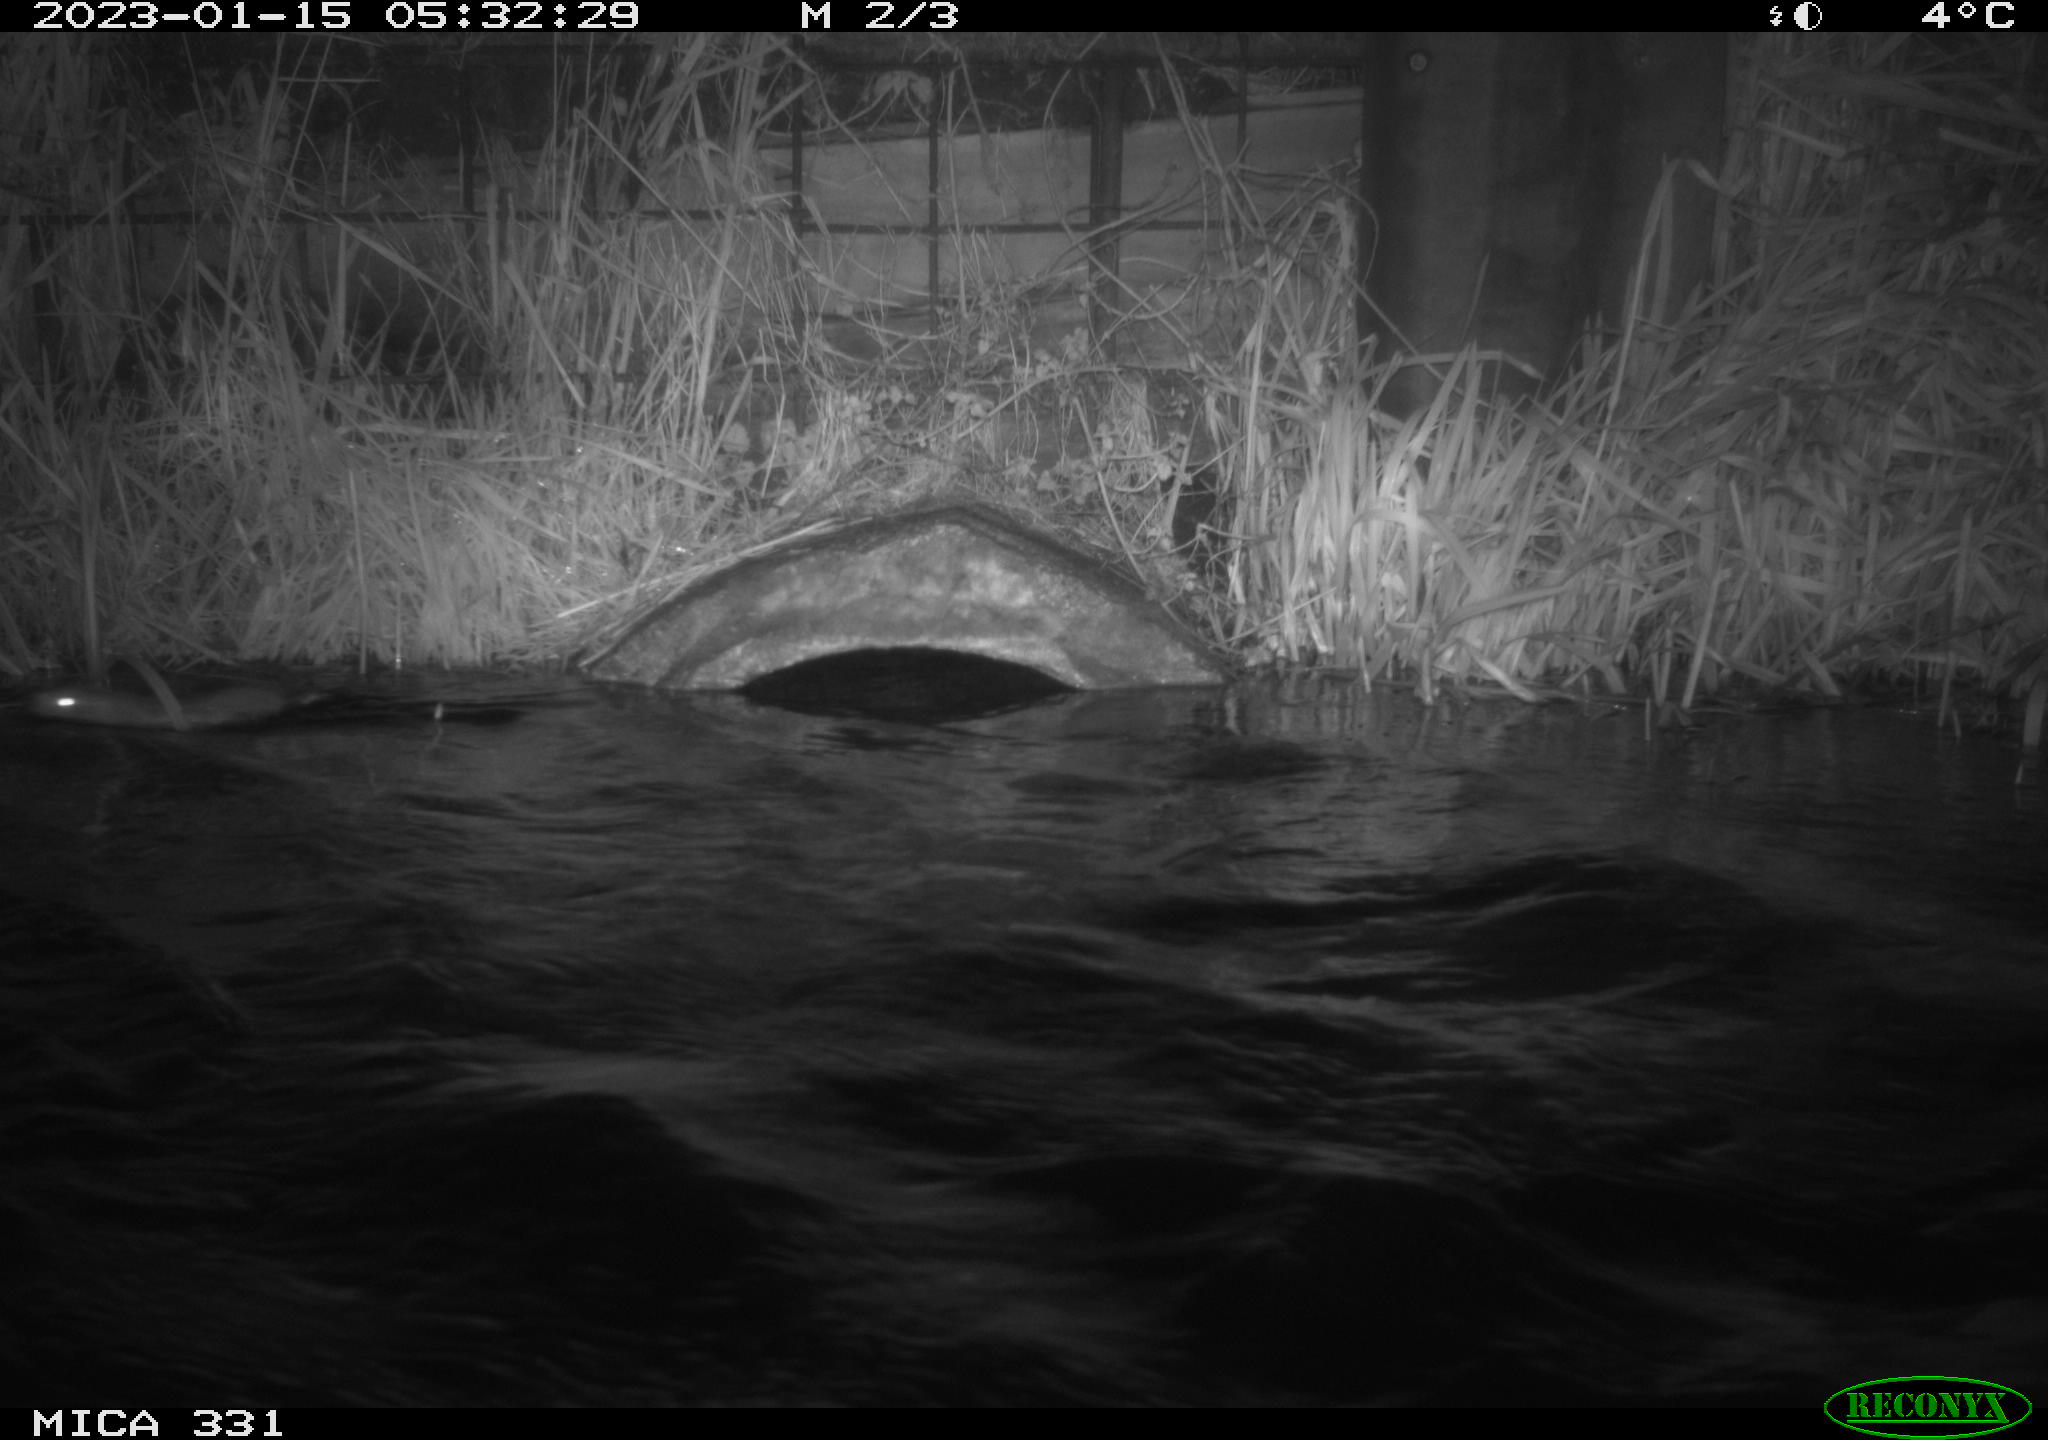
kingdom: Animalia
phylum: Chordata
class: Mammalia
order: Rodentia
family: Muridae
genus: Rattus
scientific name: Rattus norvegicus
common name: Brown rat
